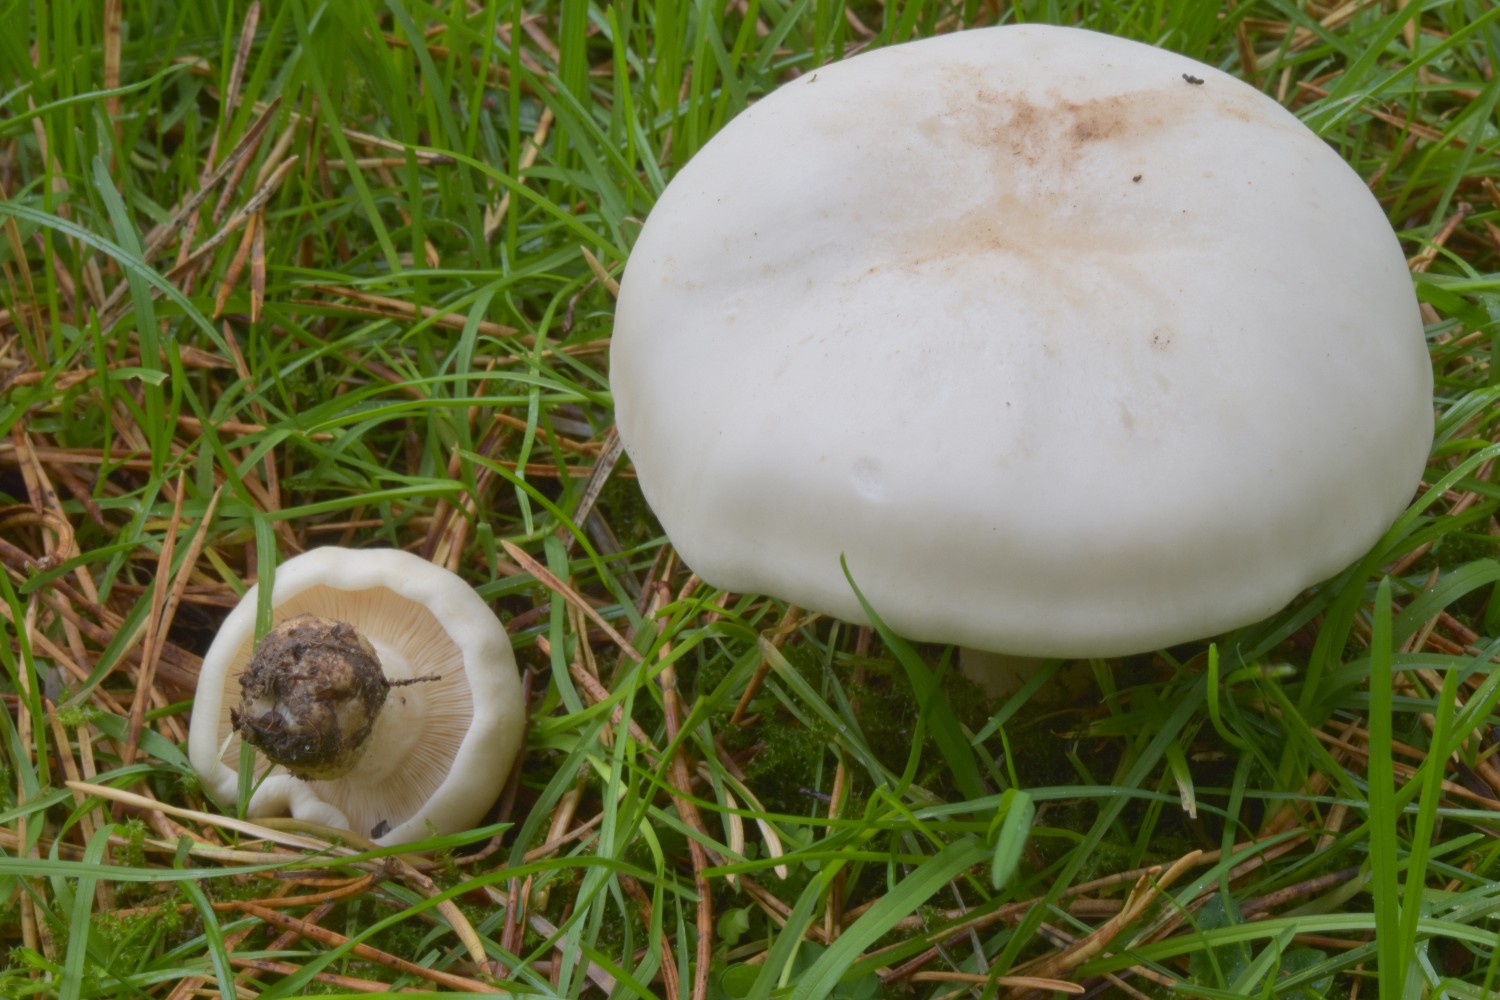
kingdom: Fungi
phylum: Basidiomycota
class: Agaricomycetes
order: Agaricales
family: Lyophyllaceae
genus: Calocybe
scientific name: Calocybe gambosa
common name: vårmusseron
